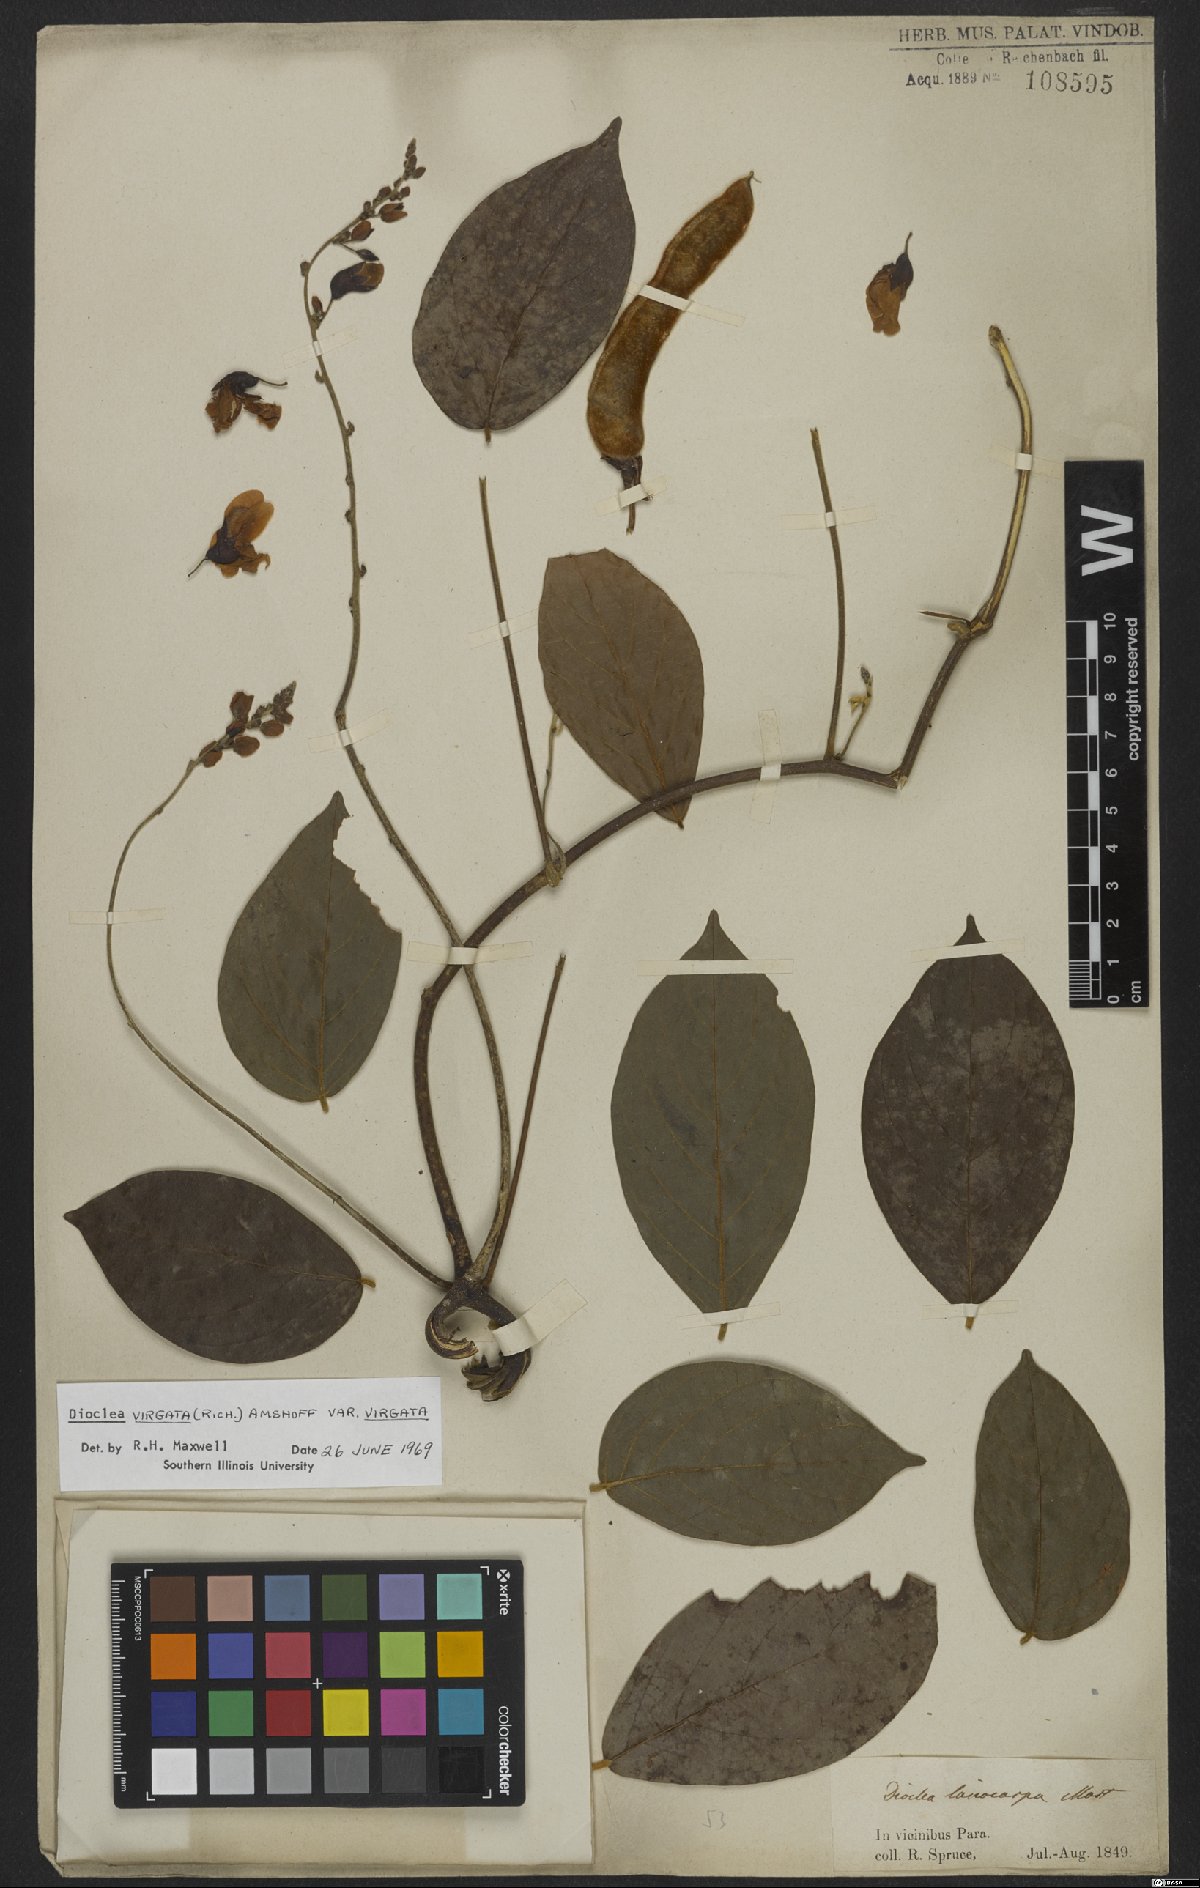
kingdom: Plantae
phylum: Tracheophyta
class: Magnoliopsida
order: Fabales
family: Fabaceae
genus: Dioclea
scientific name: Dioclea virgata
